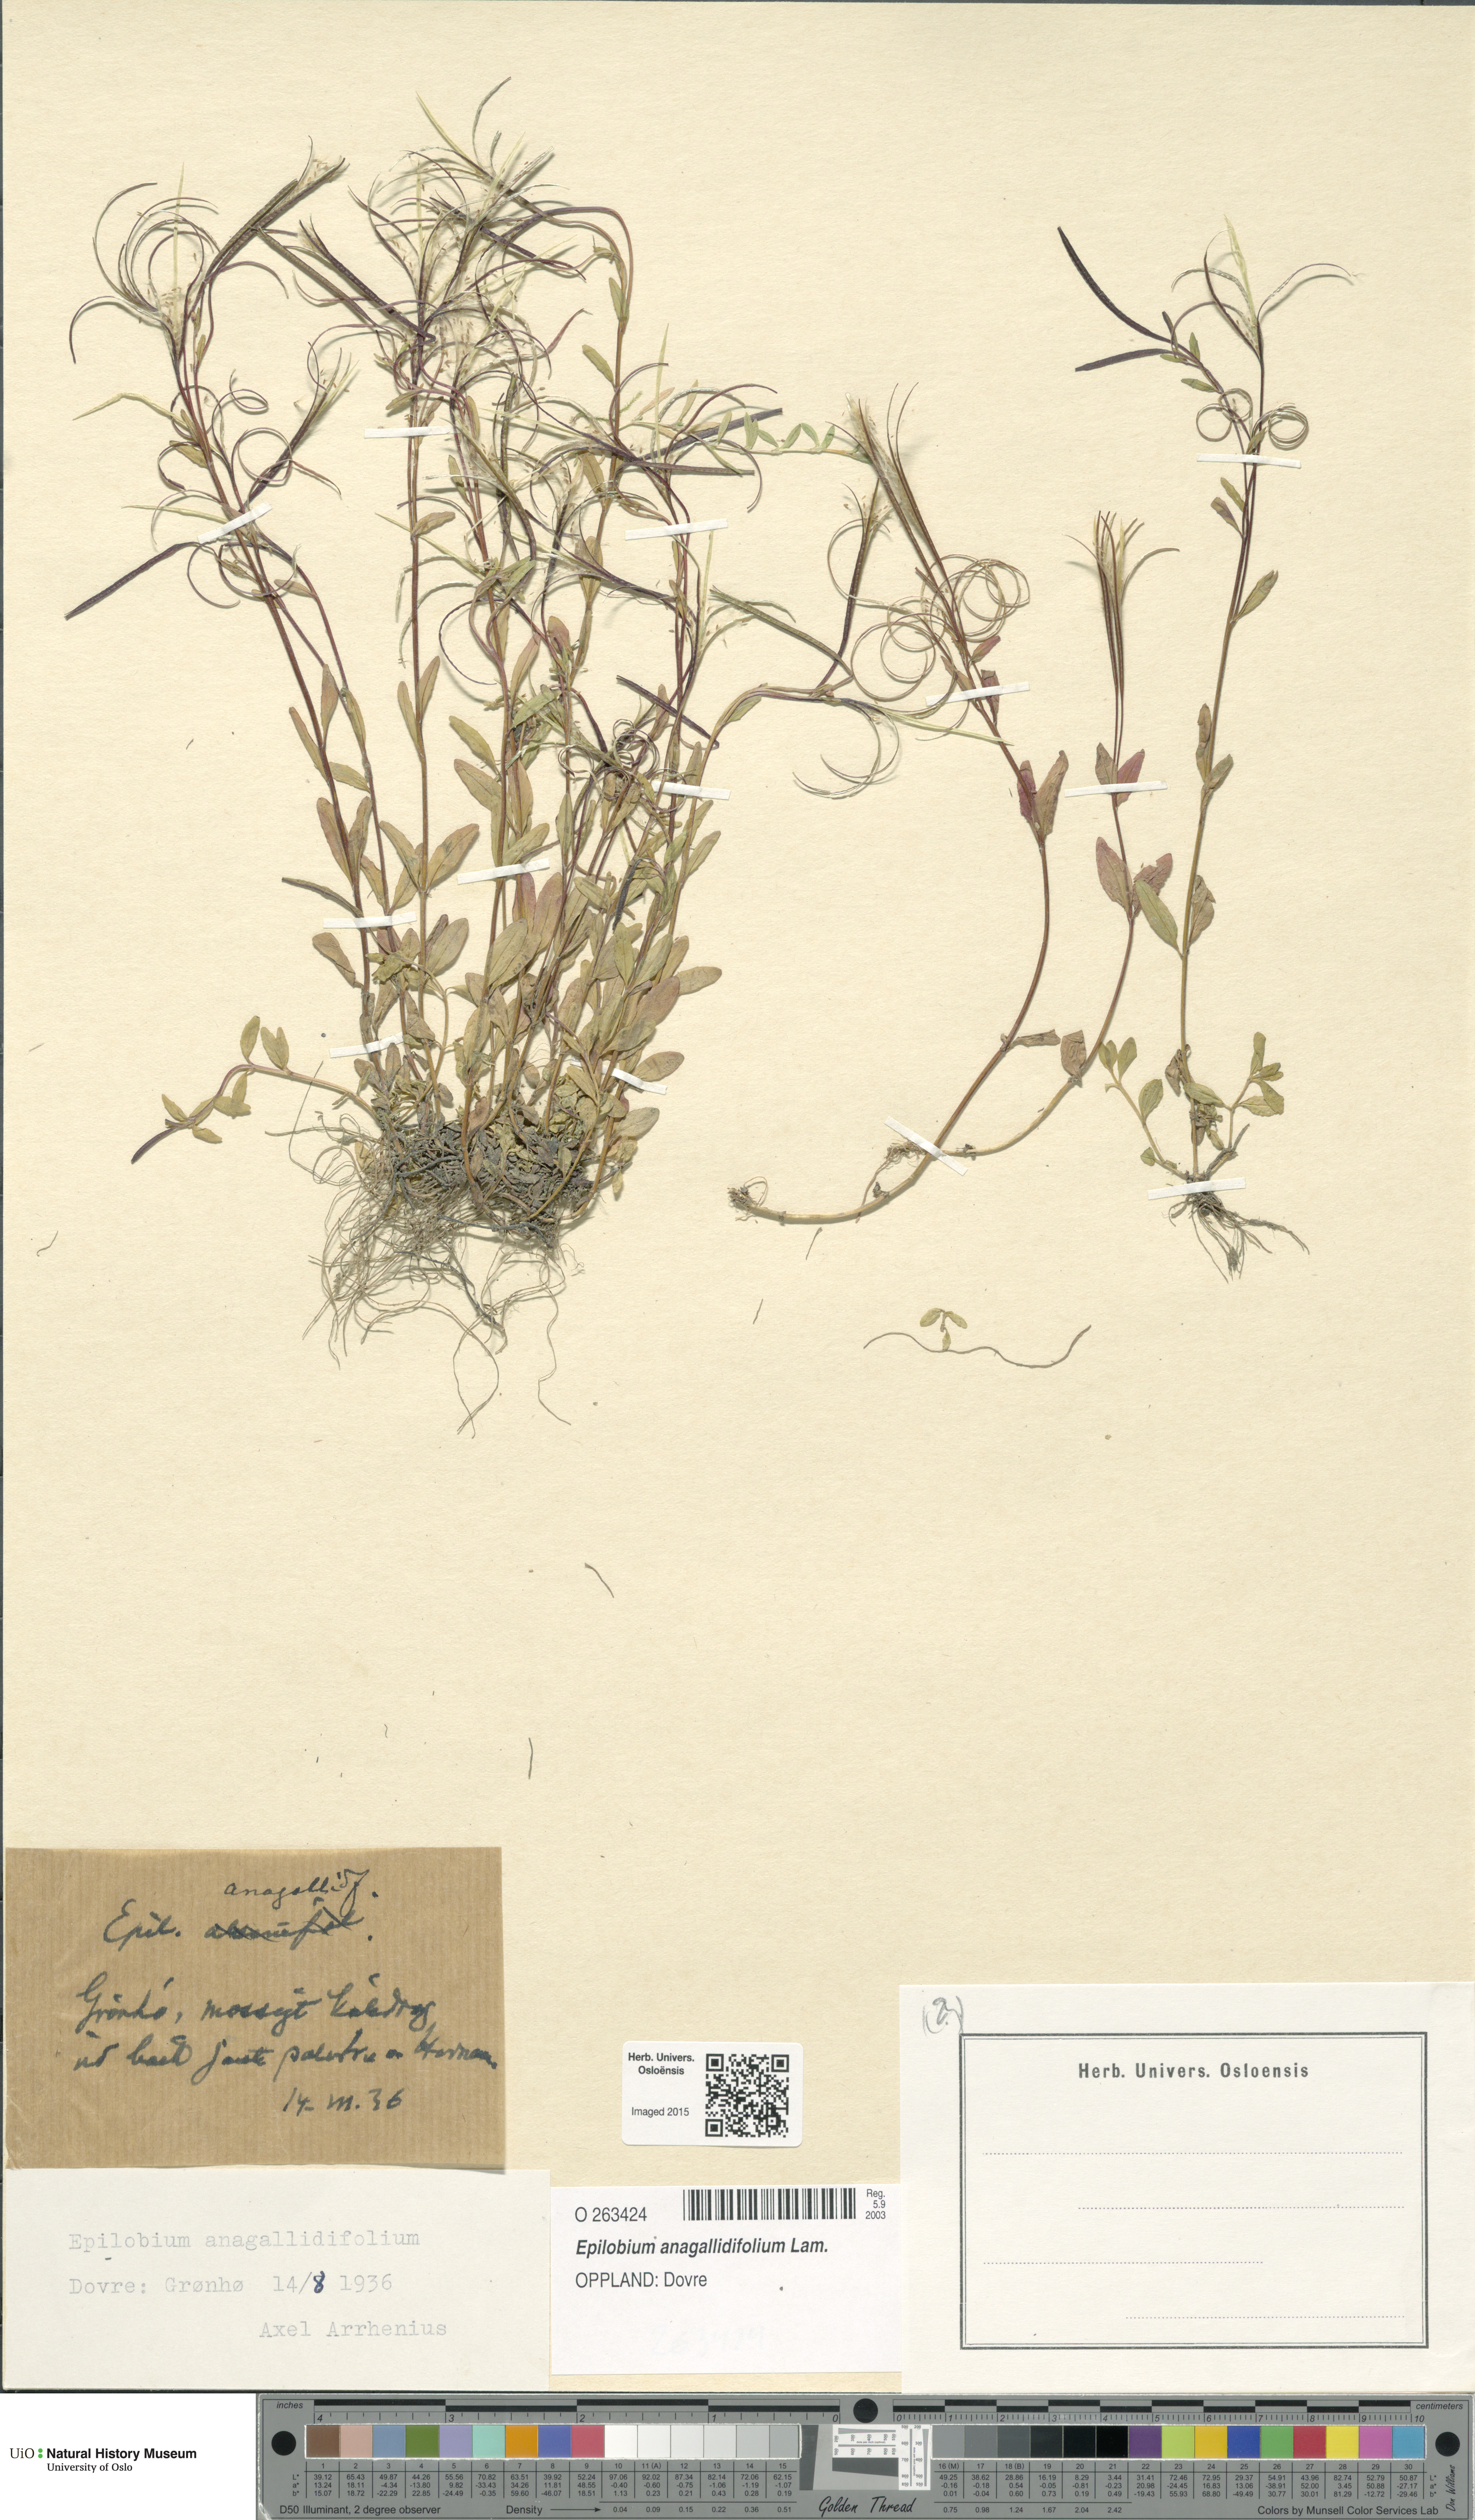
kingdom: Plantae
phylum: Tracheophyta
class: Magnoliopsida
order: Myrtales
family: Onagraceae
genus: Epilobium
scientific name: Epilobium anagallidifolium
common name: Alpine willowherb
